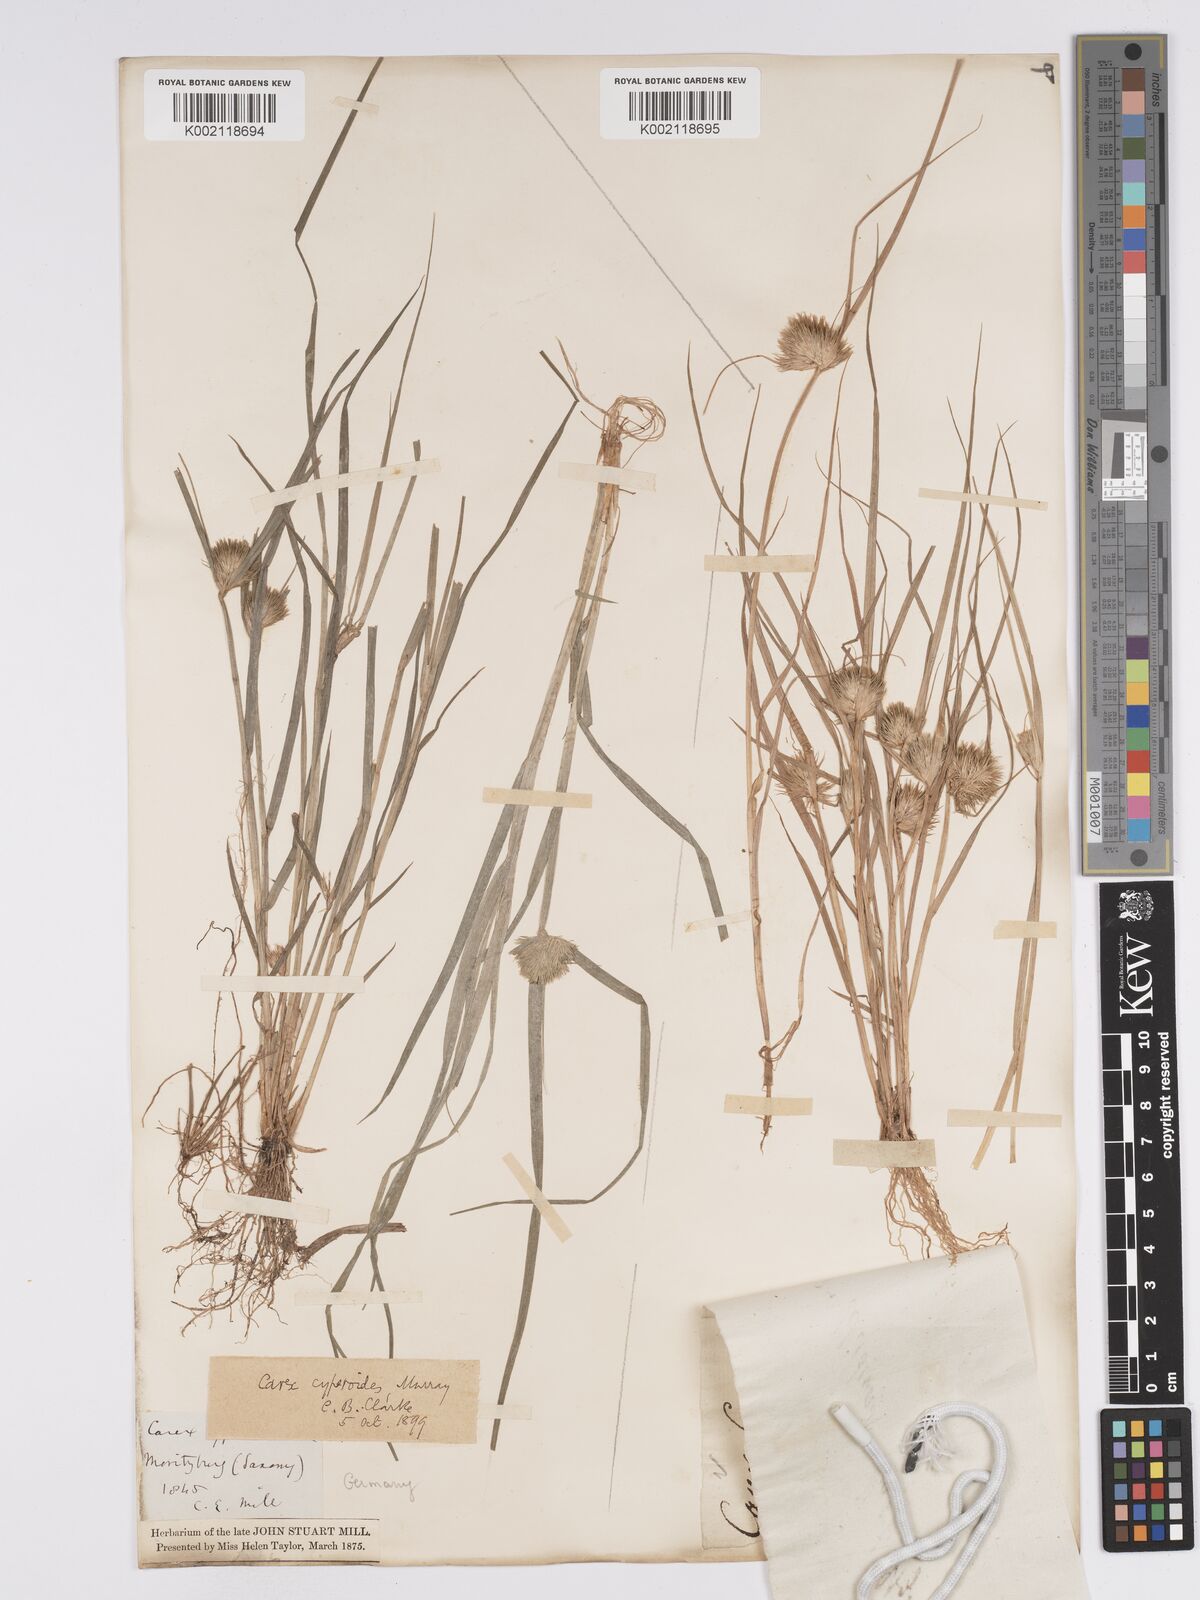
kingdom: Plantae
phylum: Tracheophyta
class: Liliopsida
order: Poales
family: Cyperaceae
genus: Carex
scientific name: Carex bohemica
